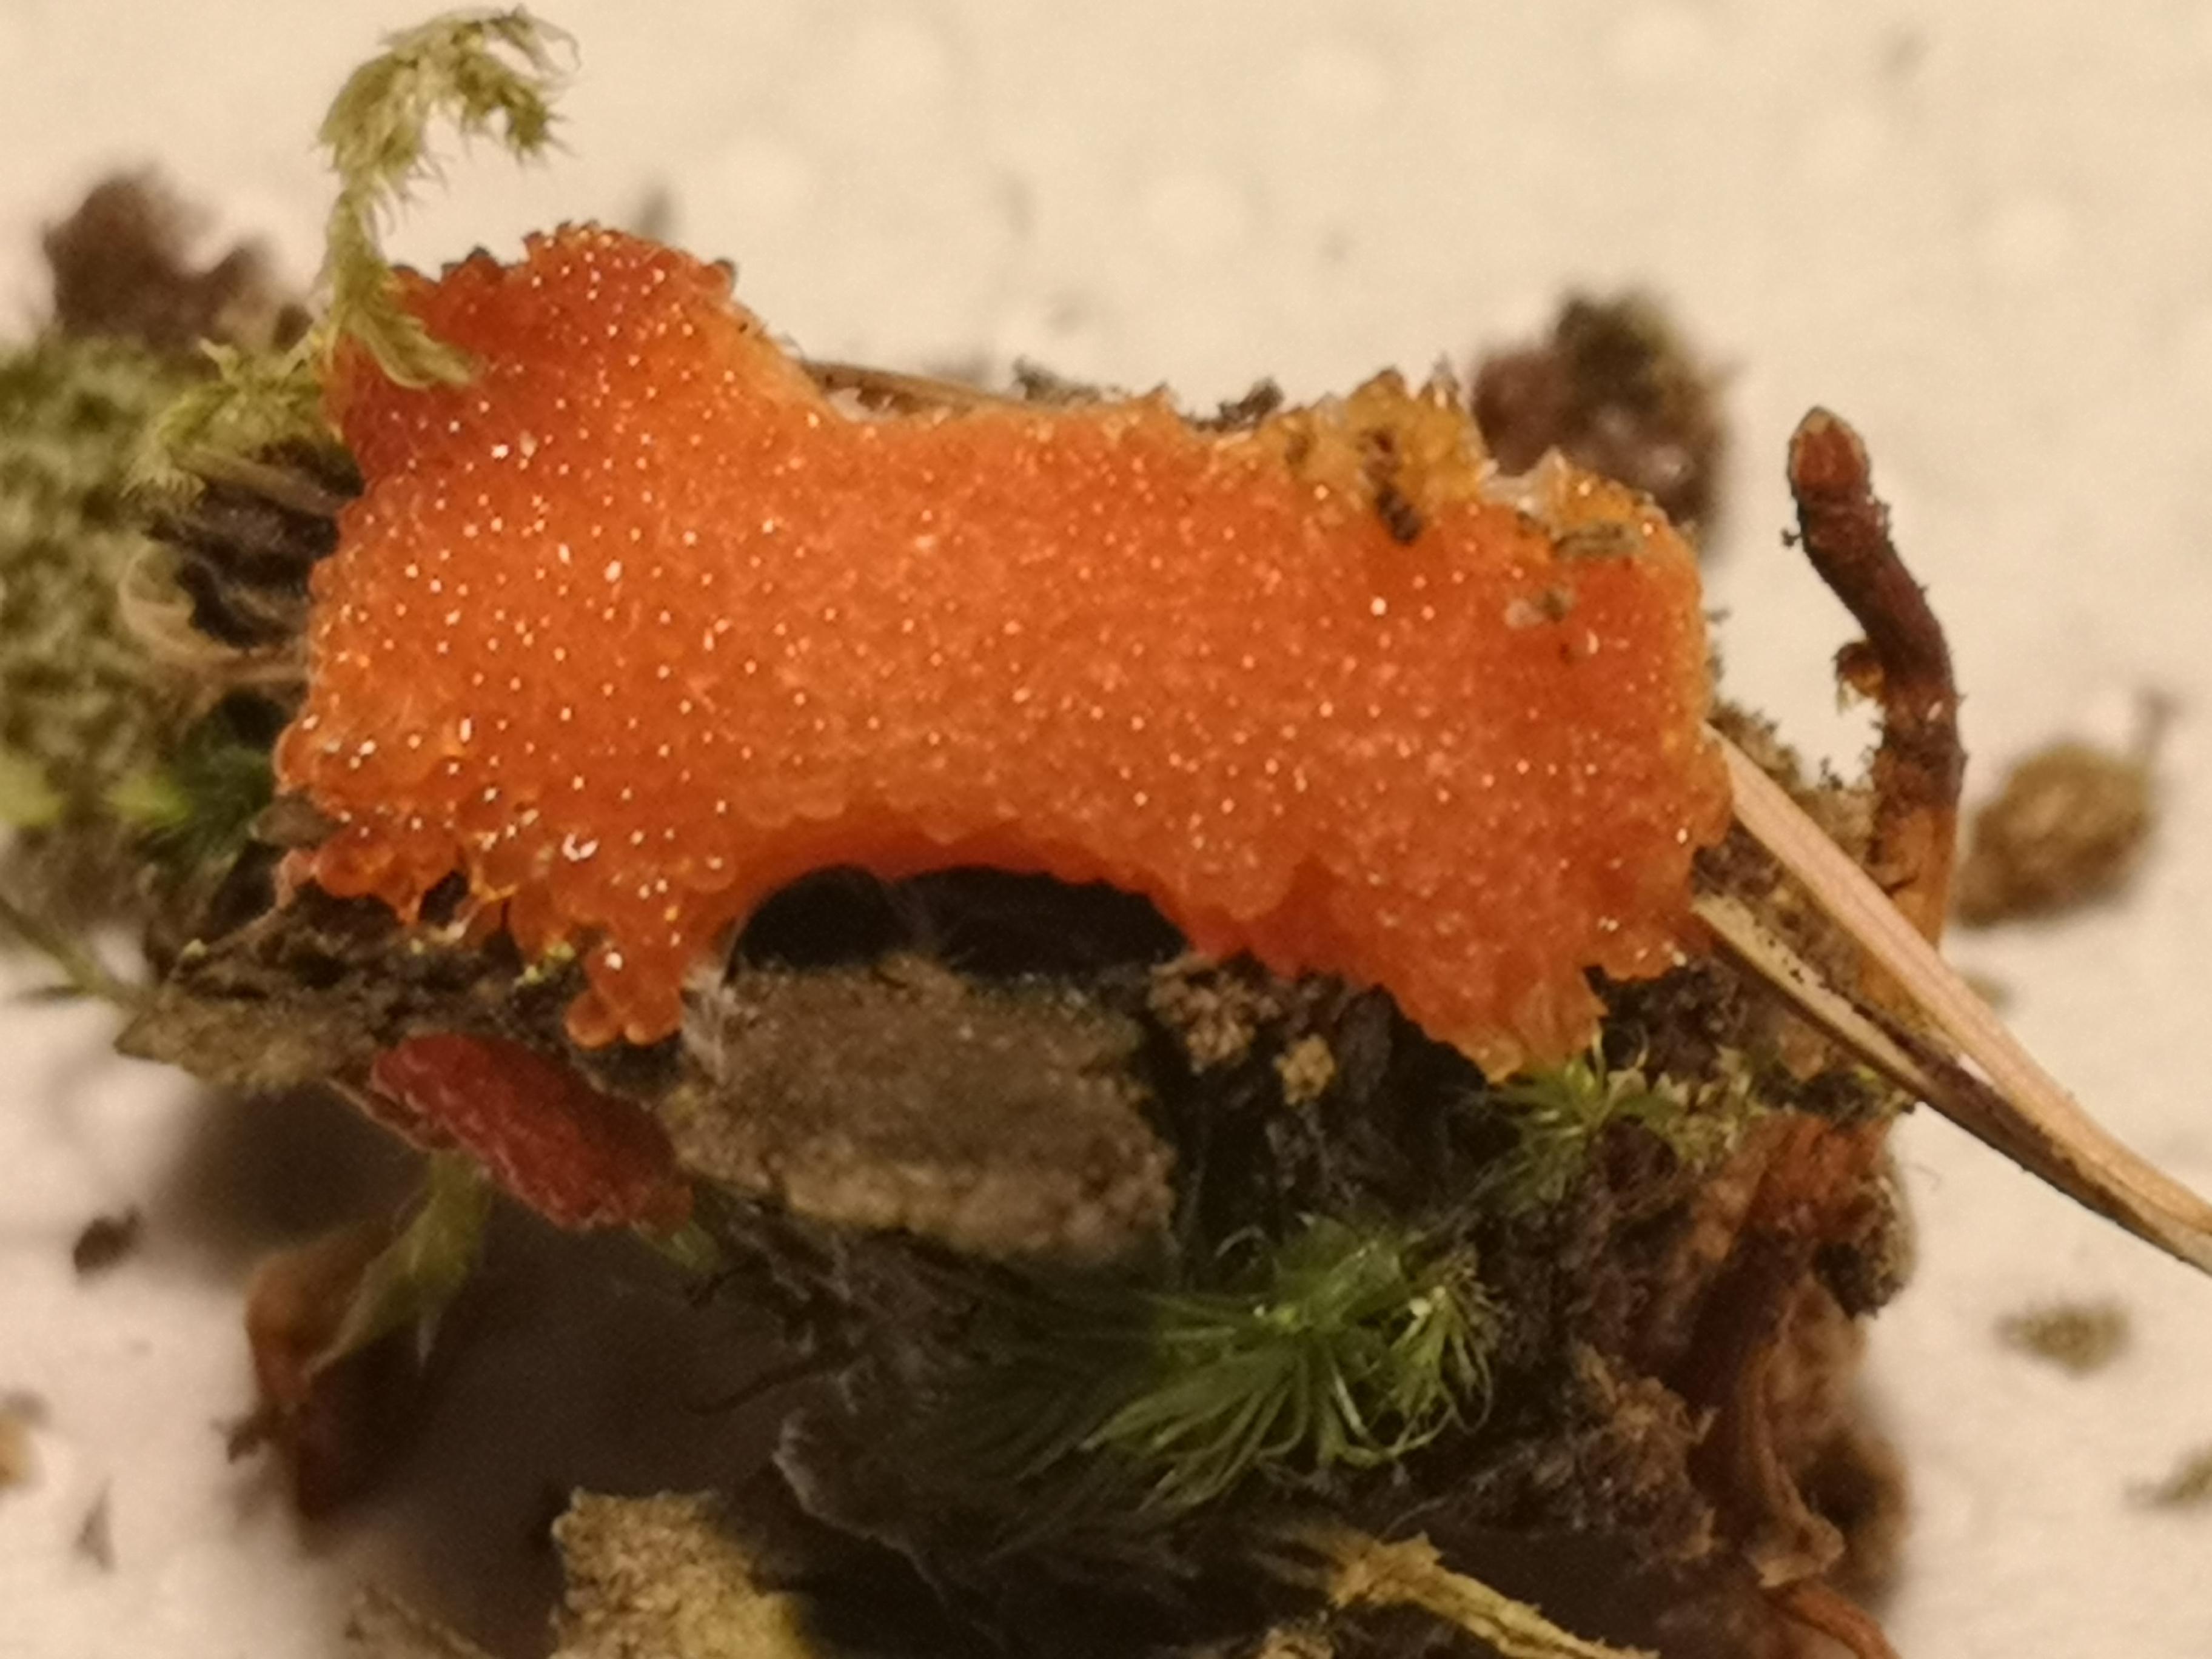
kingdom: Protozoa
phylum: Mycetozoa
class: Myxomycetes
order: Cribrariales
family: Tubiferaceae
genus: Tubifera
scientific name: Tubifera ferruginosa
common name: kanel-støvrør
